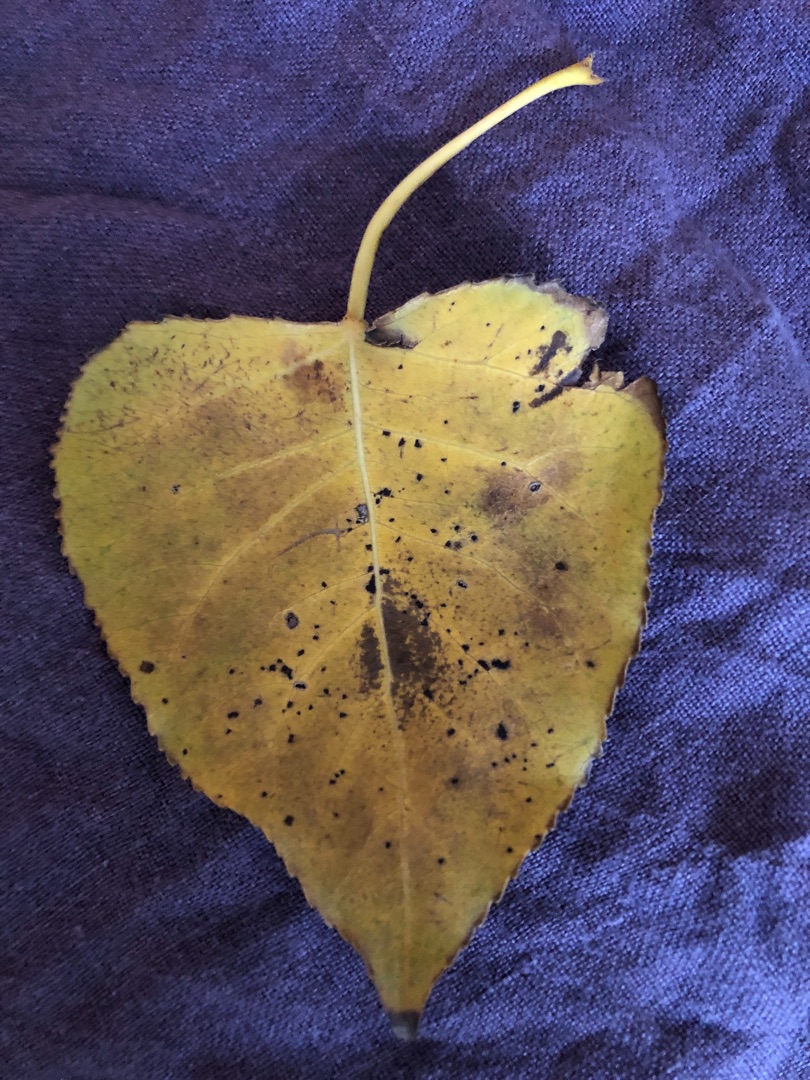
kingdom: Plantae
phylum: Tracheophyta
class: Magnoliopsida
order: Malpighiales
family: Salicaceae
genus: Populus
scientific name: Populus balsamifera
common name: Balsam-poppel
